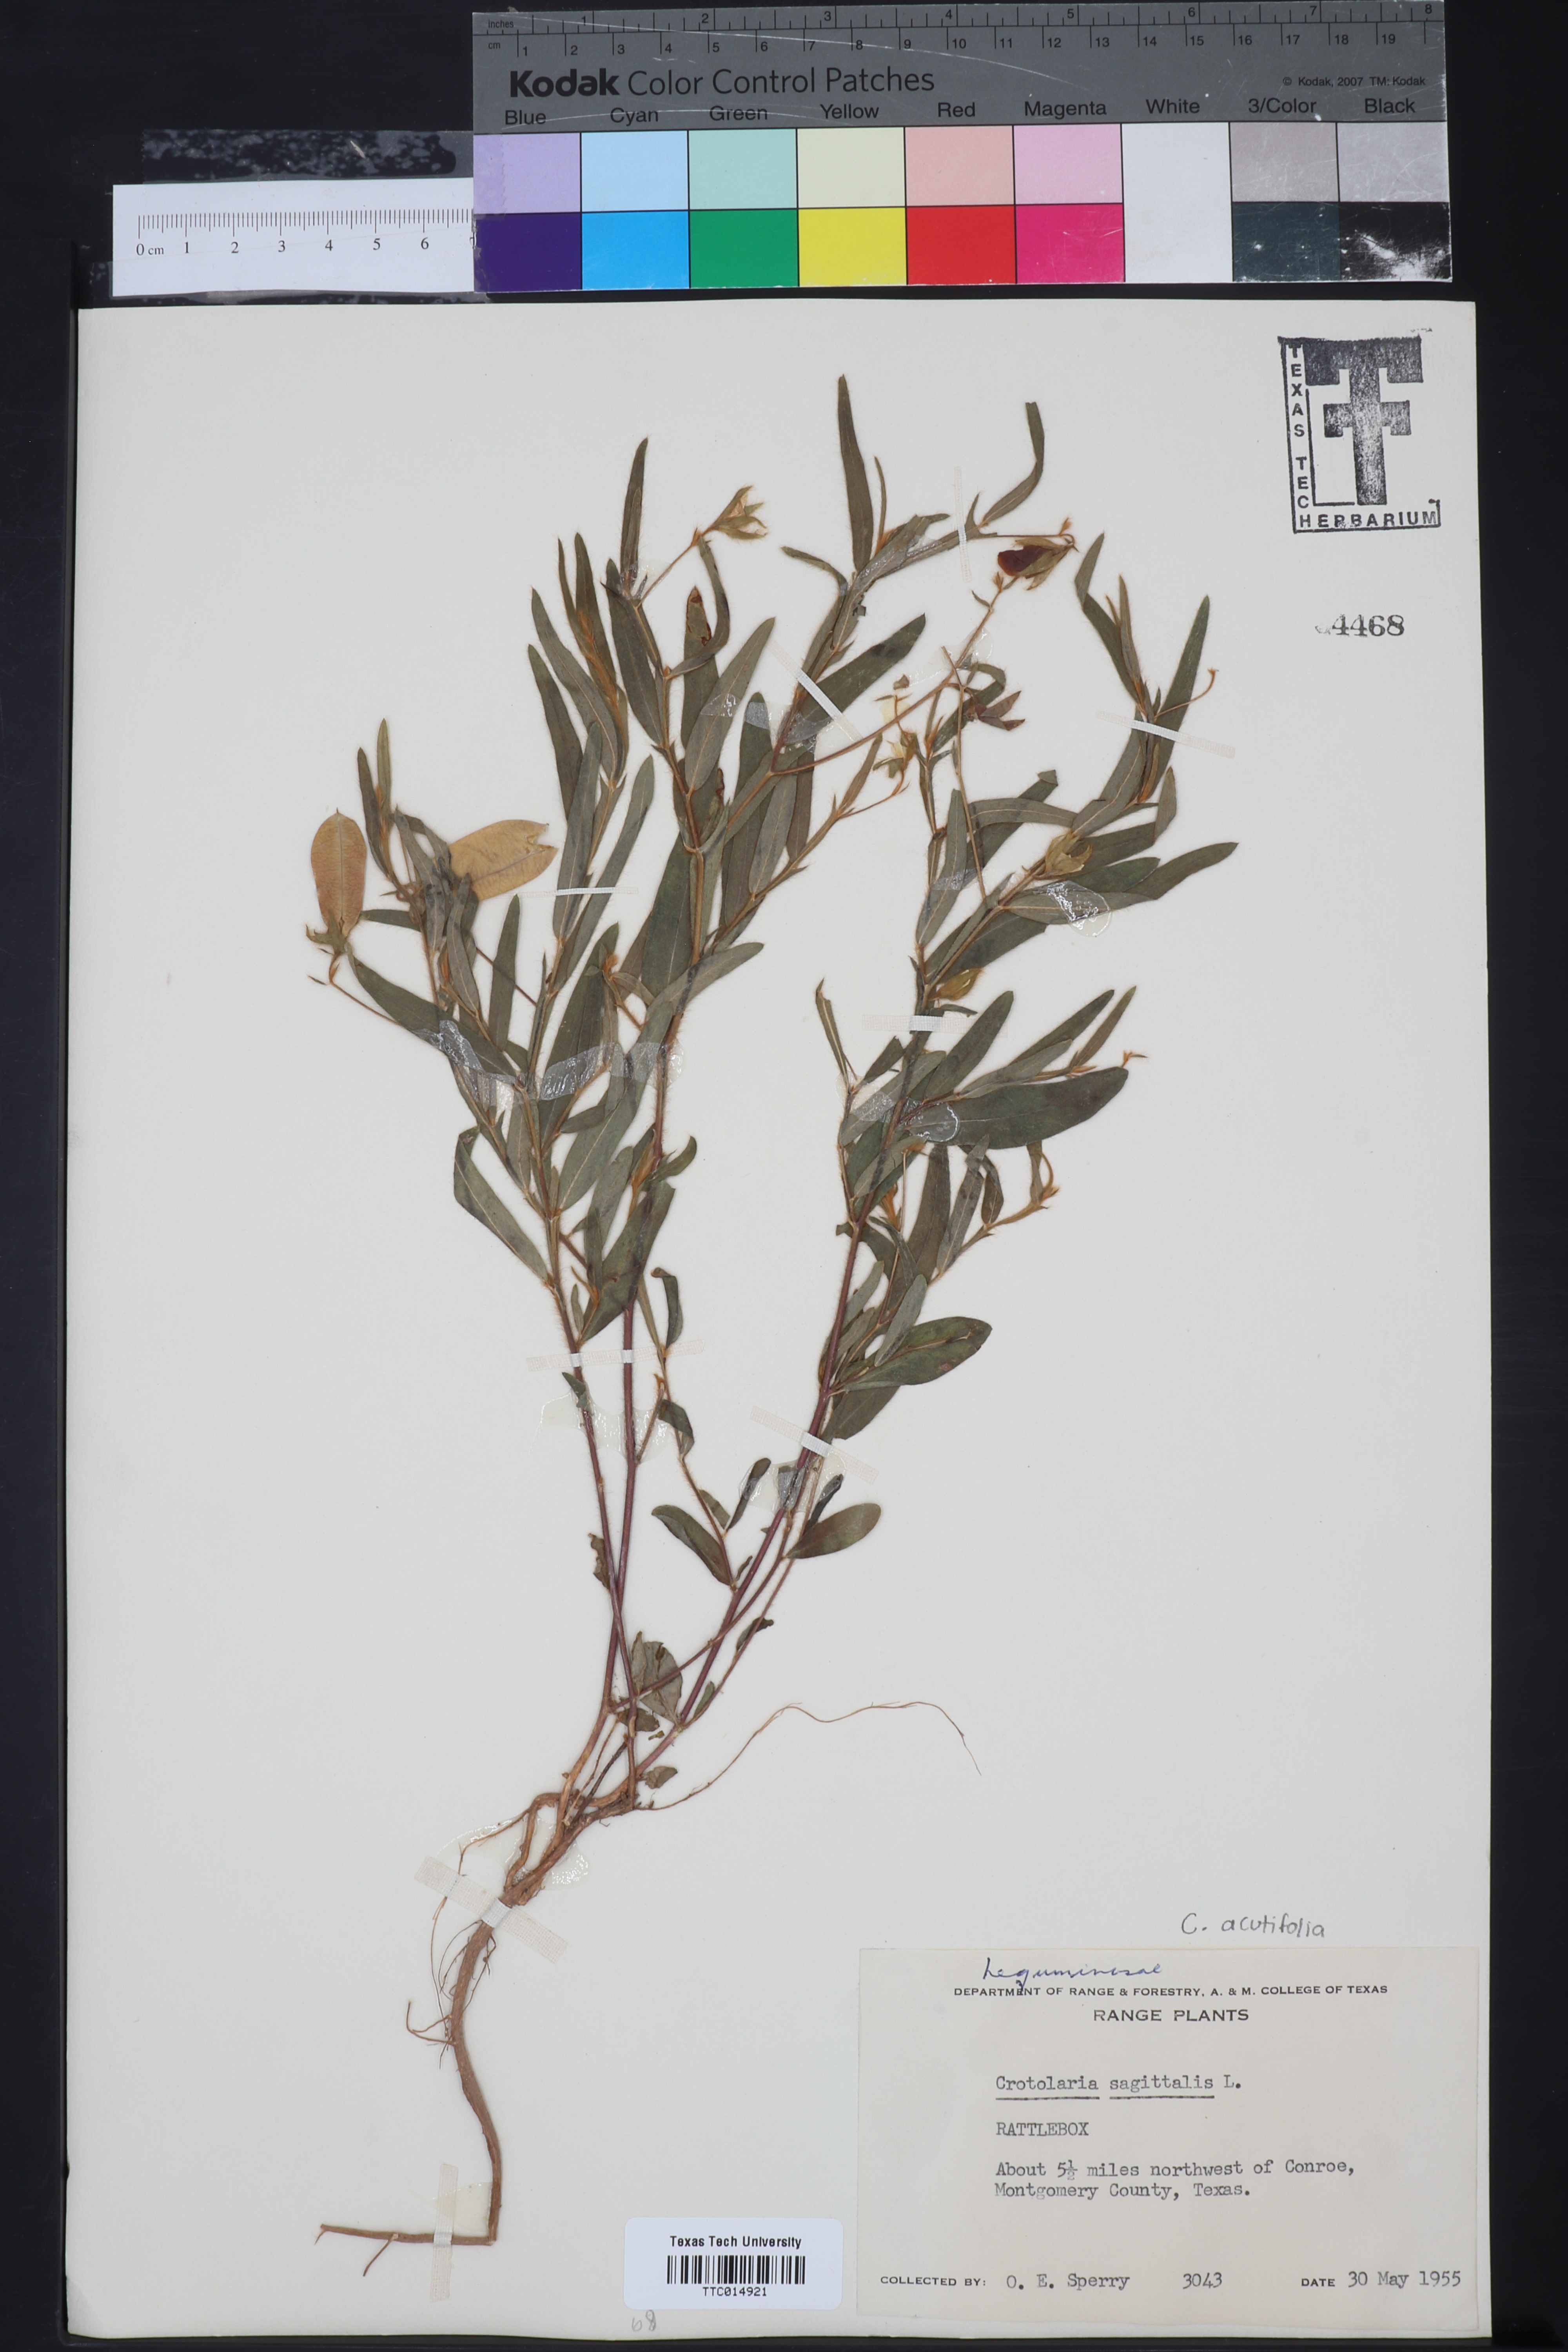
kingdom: Plantae
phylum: Tracheophyta
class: Magnoliopsida
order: Fabales
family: Fabaceae
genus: Crotalaria
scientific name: Crotalaria sagittalis
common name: Arrowhead rattlebox
